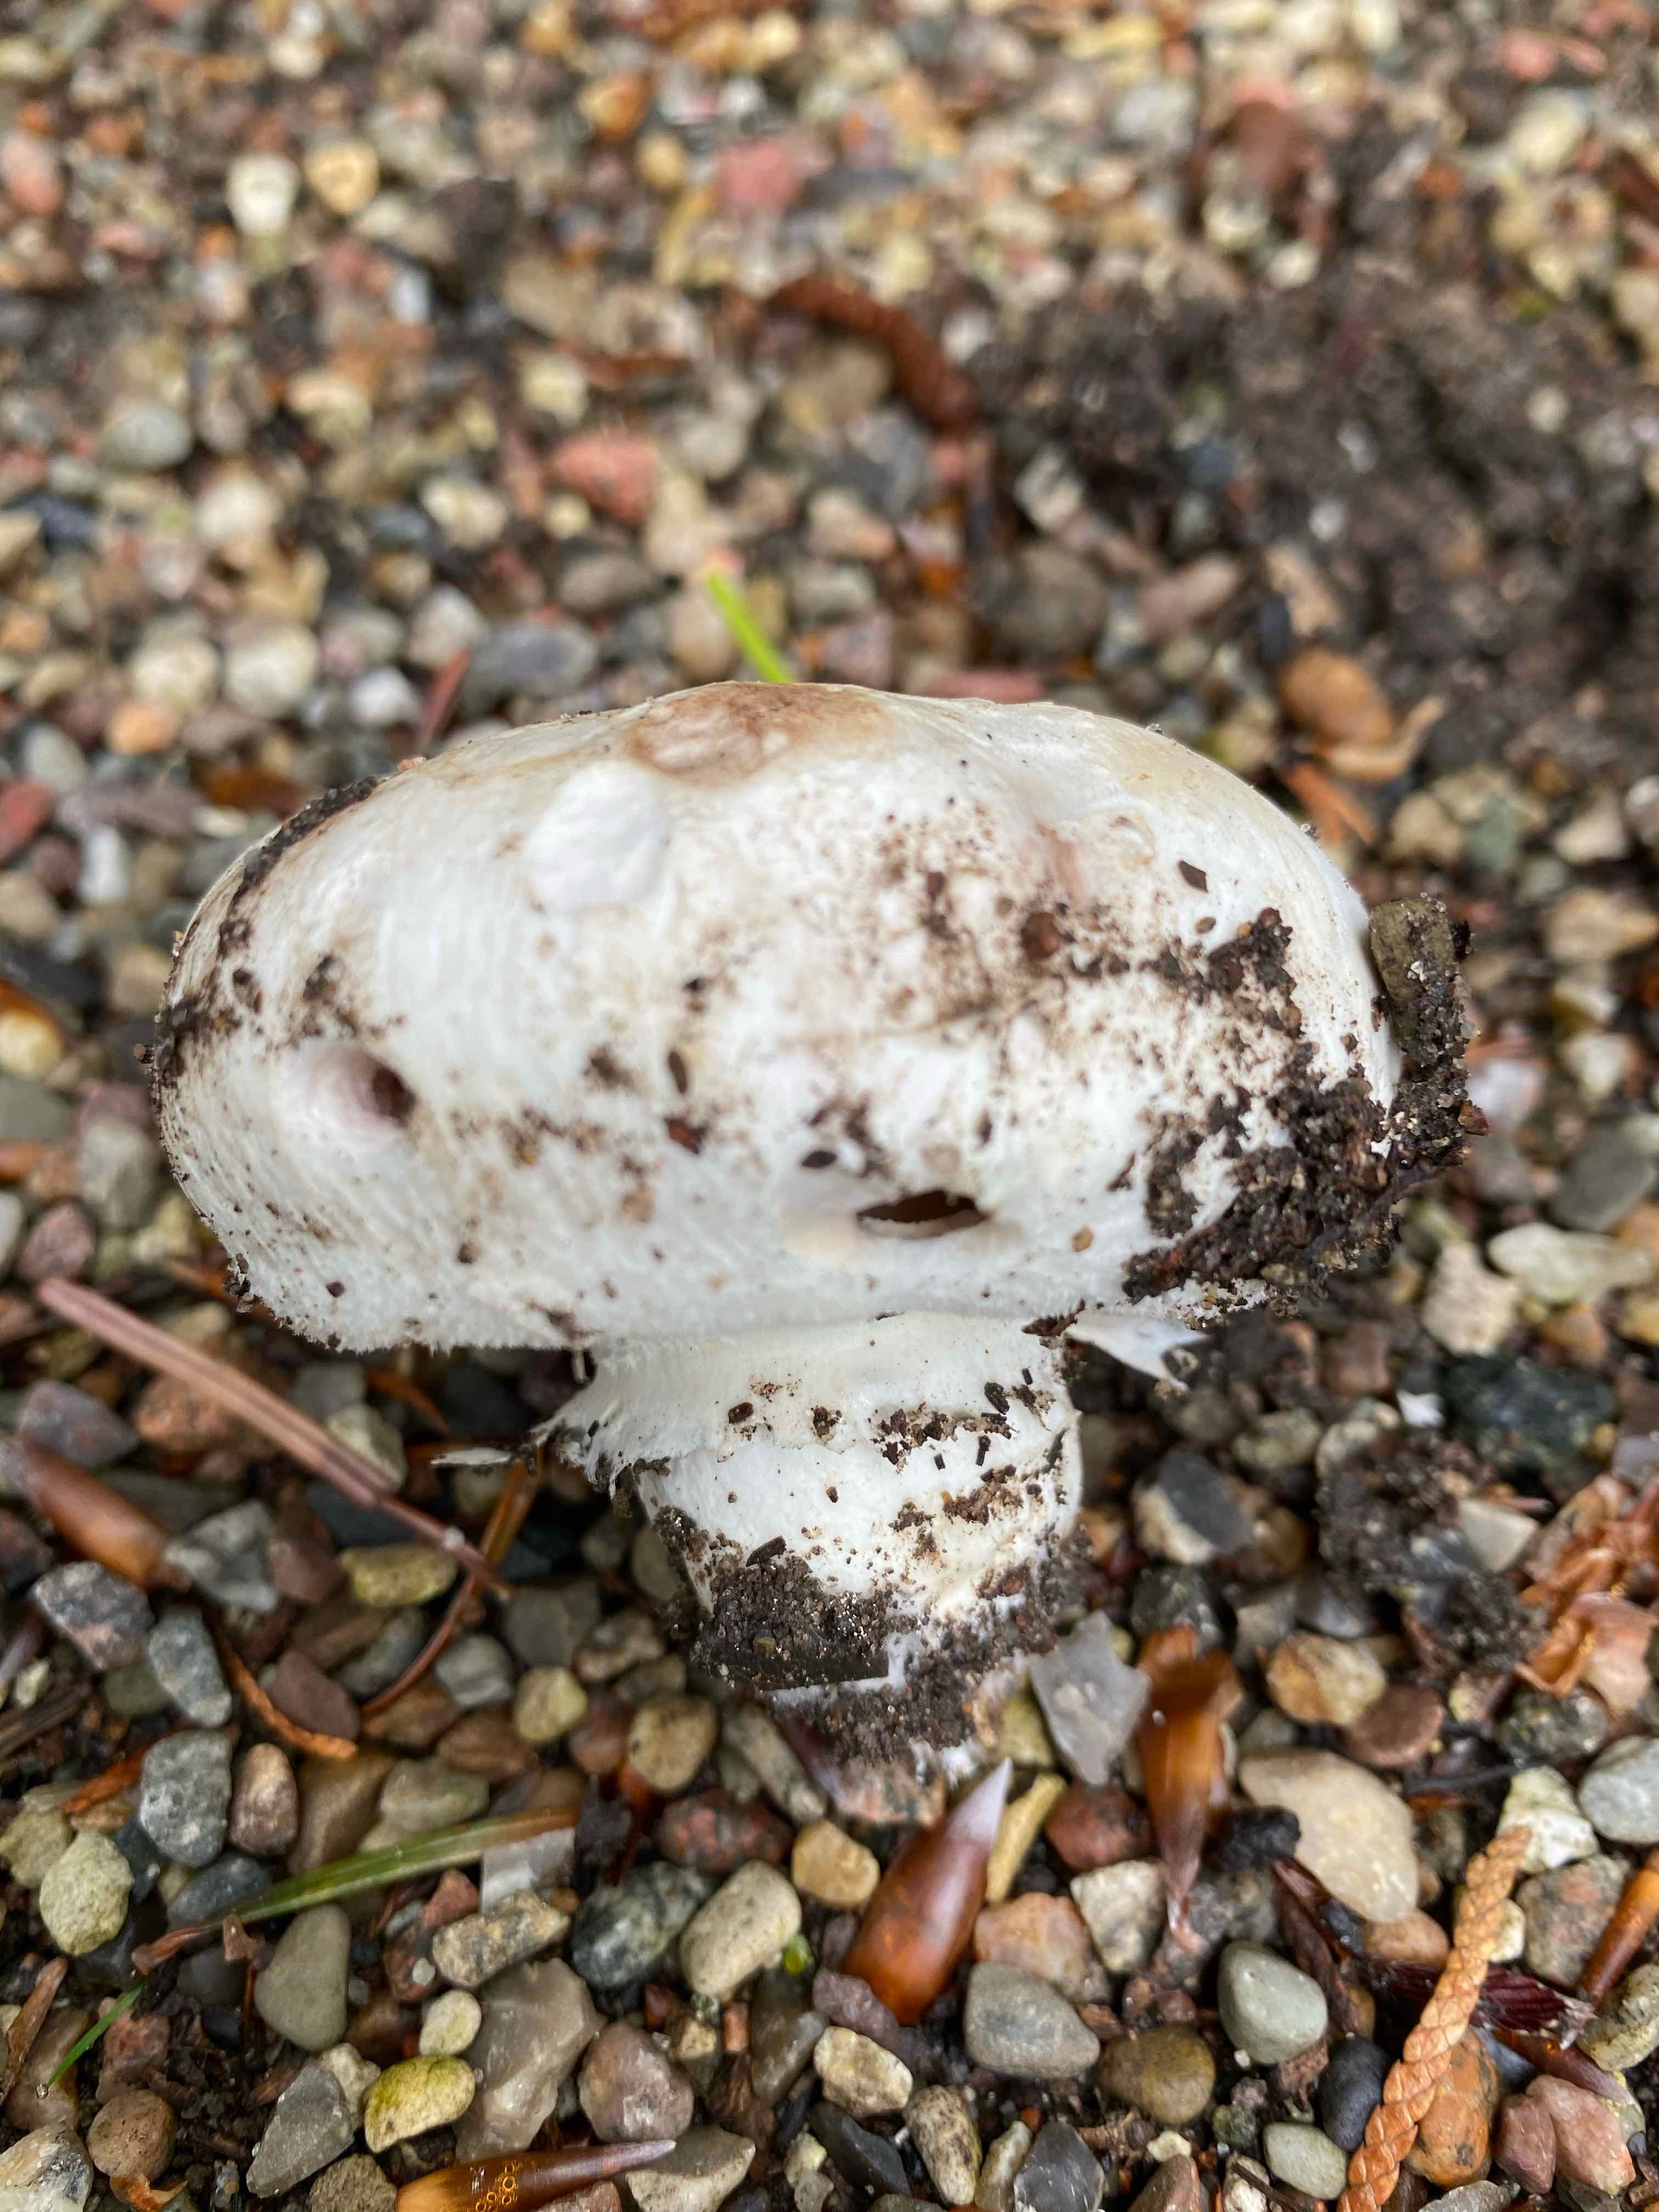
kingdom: Fungi
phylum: Basidiomycota
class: Agaricomycetes
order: Agaricales
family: Agaricaceae
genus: Agaricus
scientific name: Agaricus
